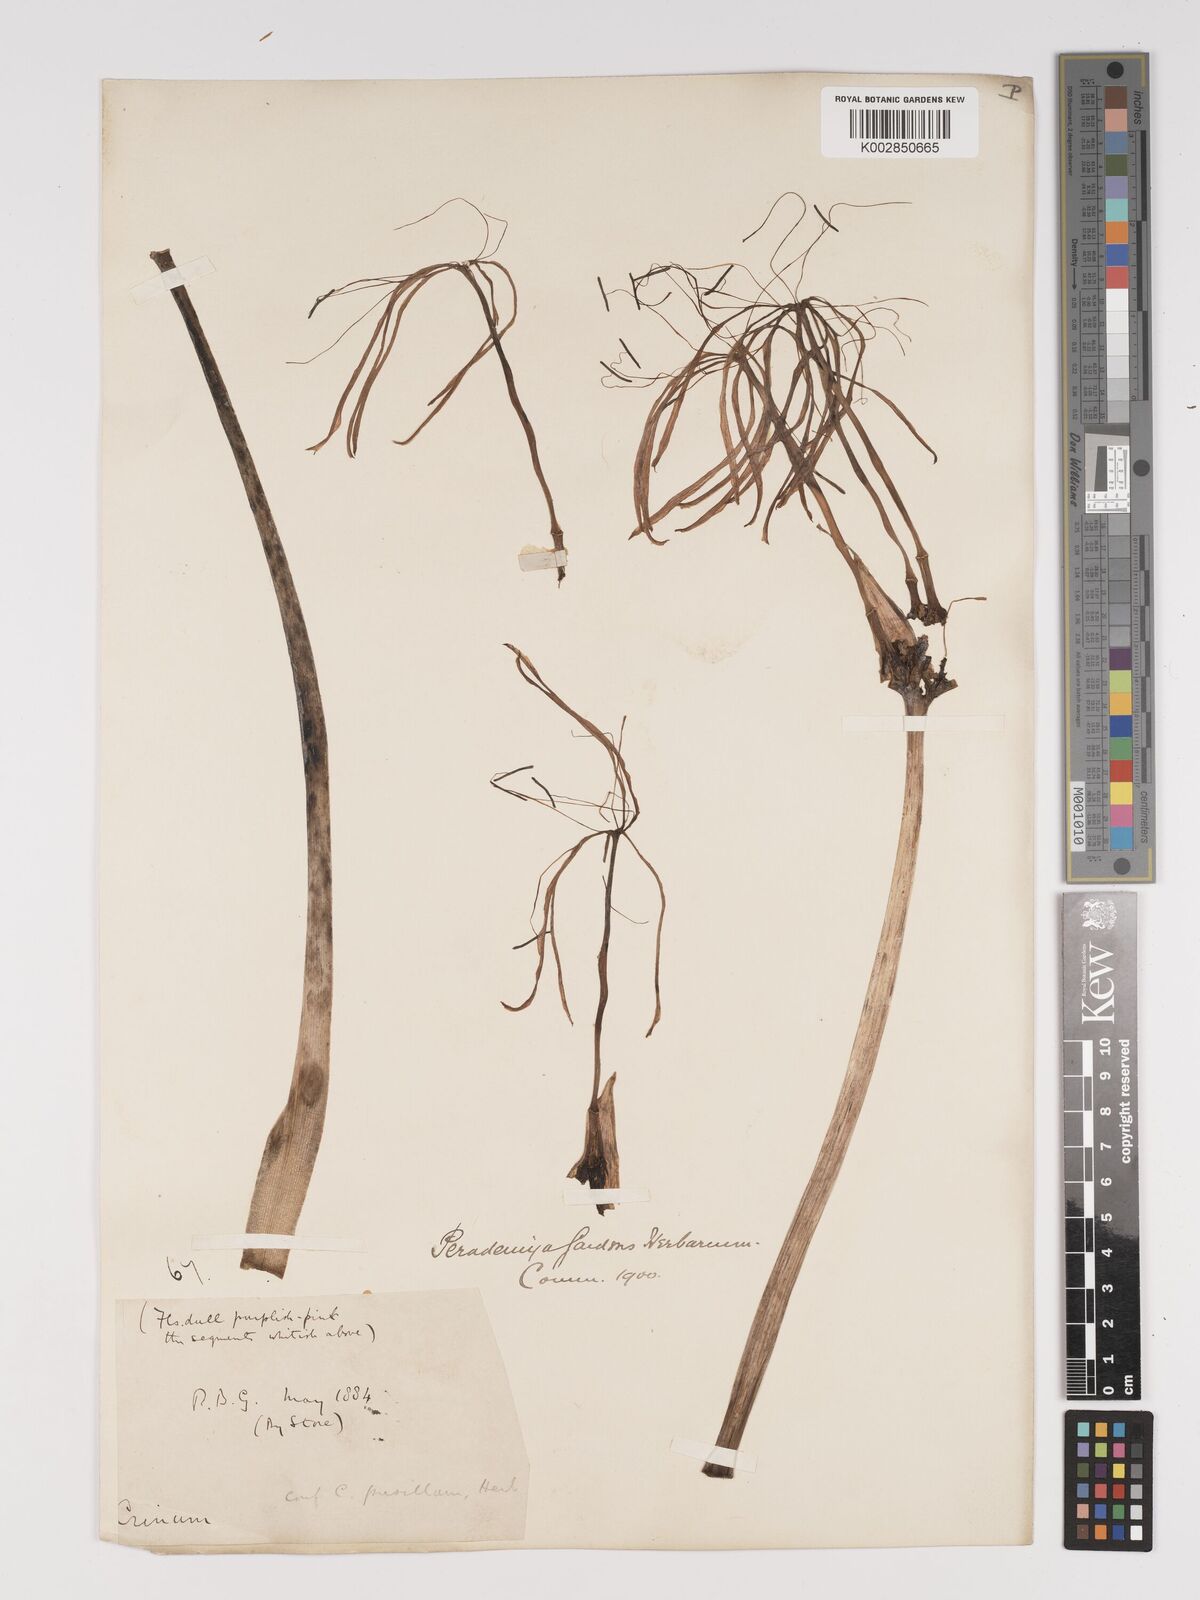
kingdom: Plantae
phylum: Tracheophyta
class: Liliopsida
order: Asparagales
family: Amaryllidaceae
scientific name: Amaryllidaceae
